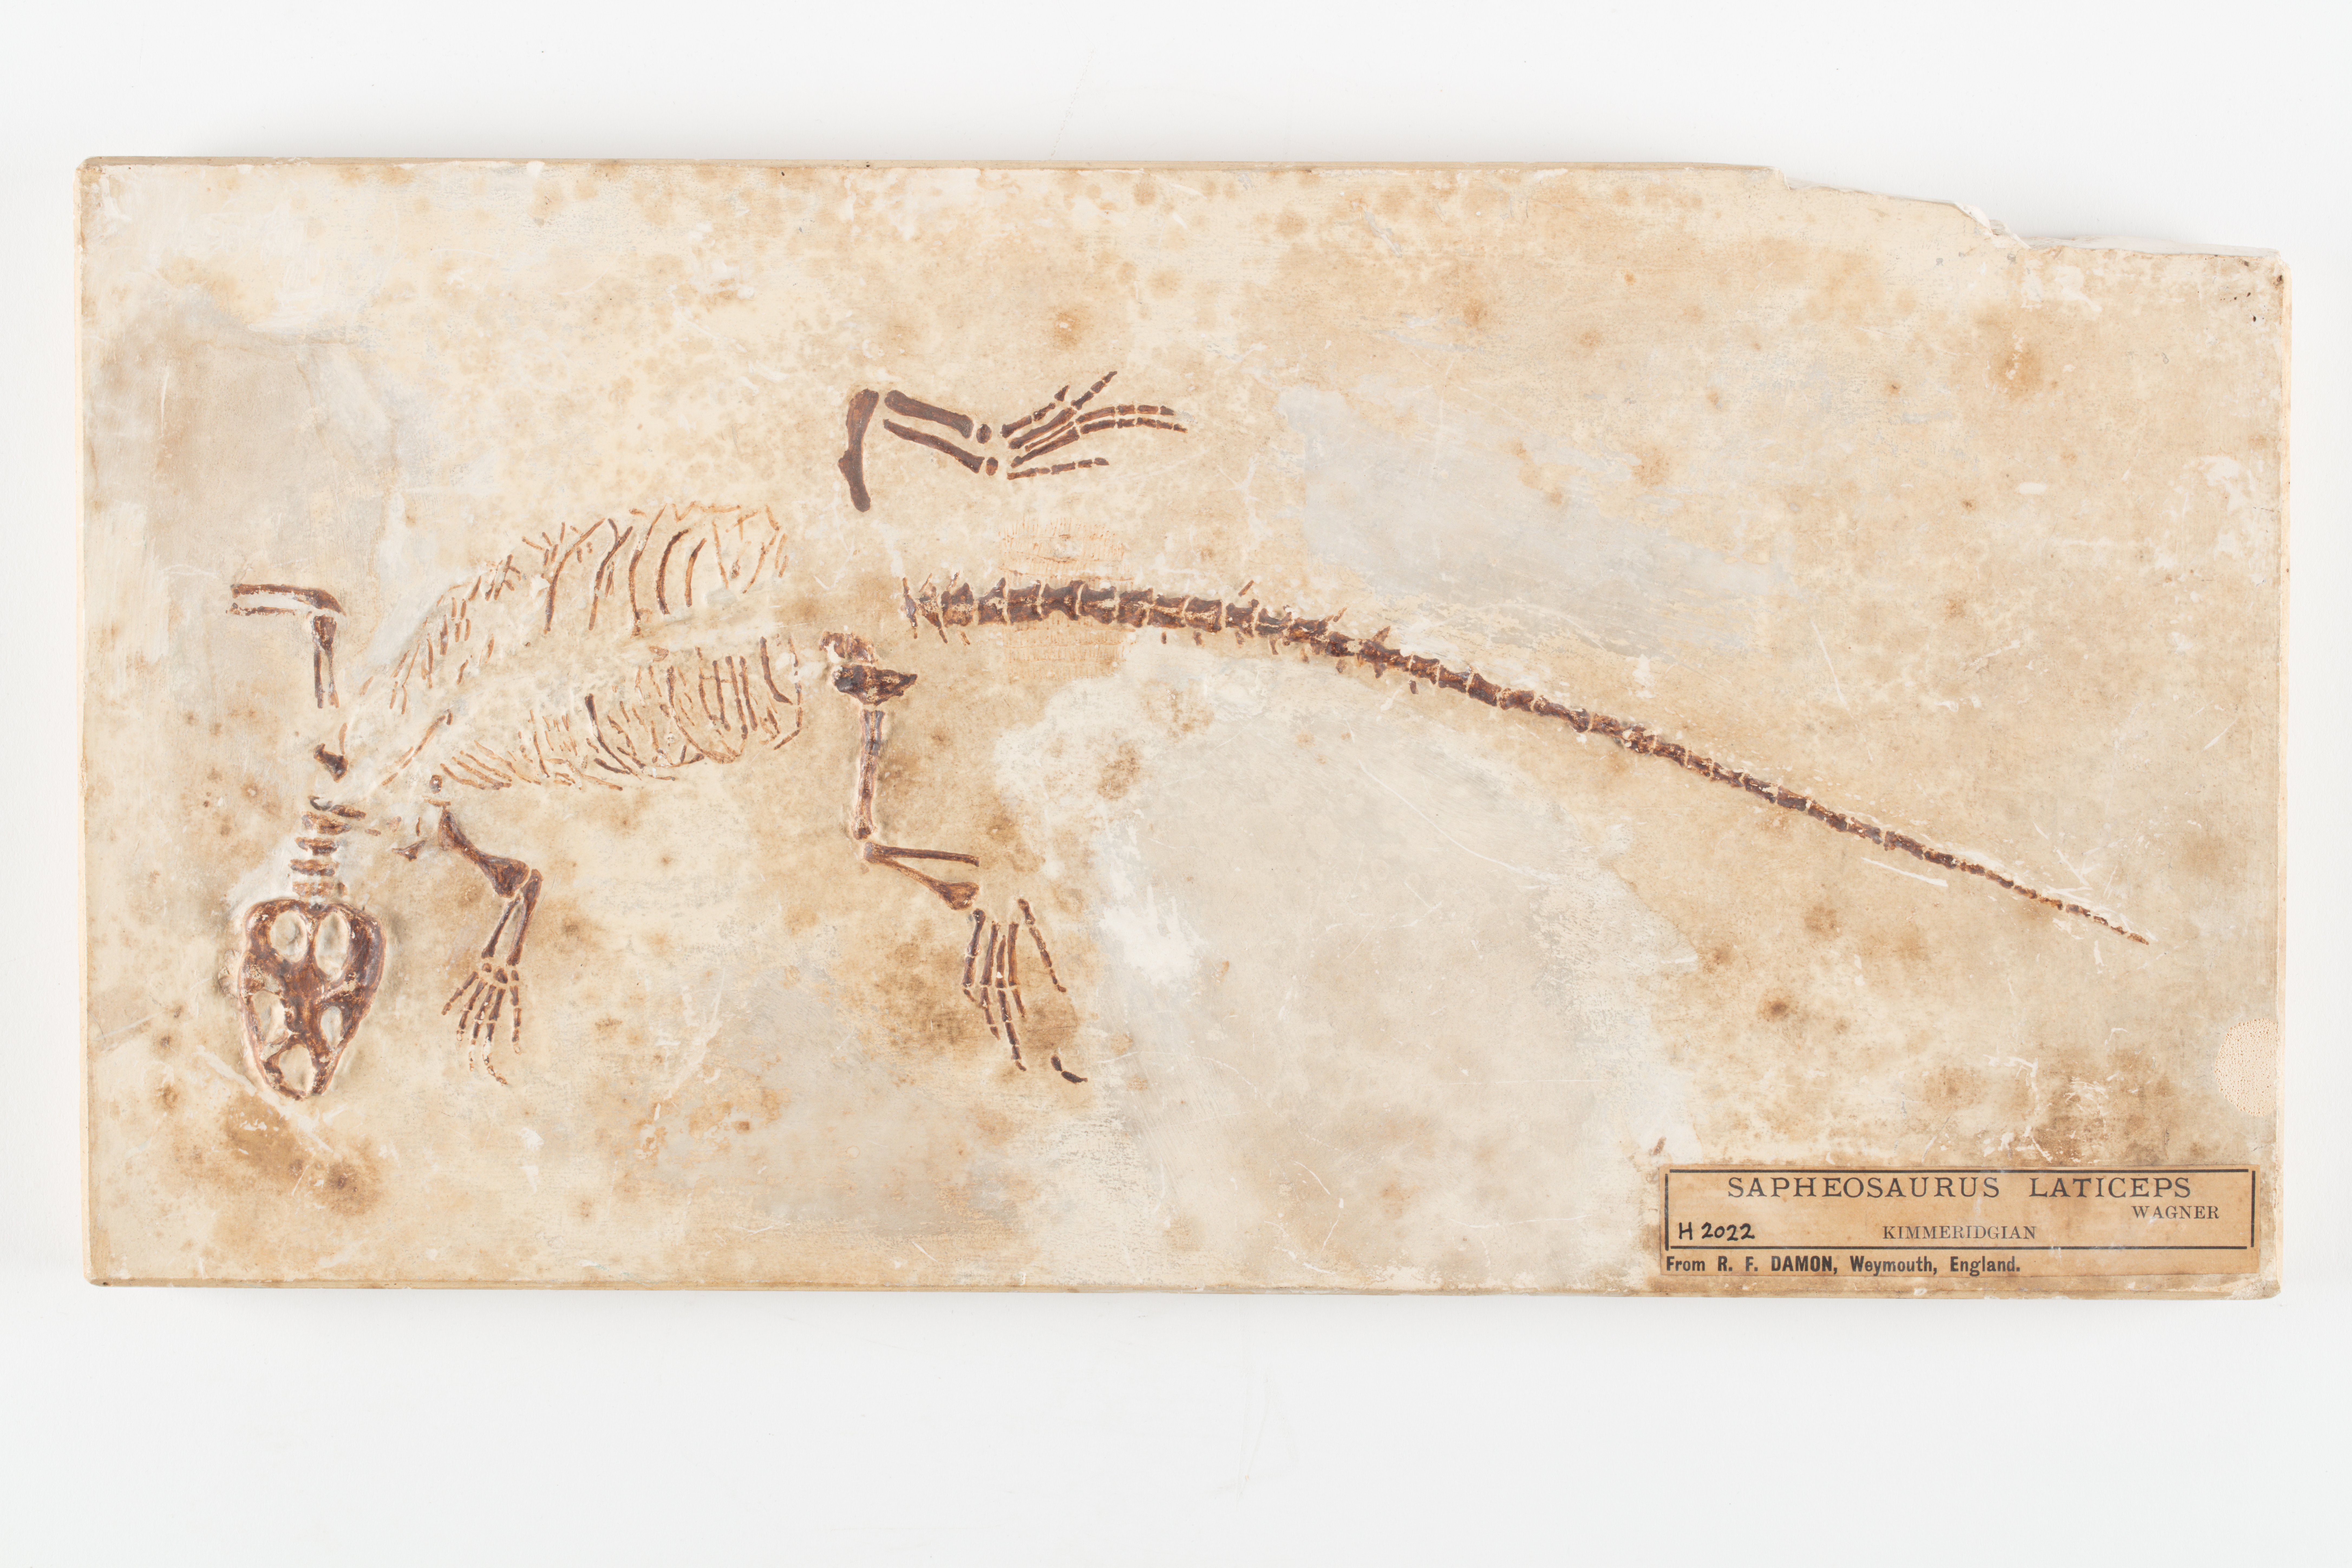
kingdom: Animalia
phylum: Chordata
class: Sphenodontia
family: Sphenodontidae
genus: Piocormus
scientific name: Piocormus laticeps
